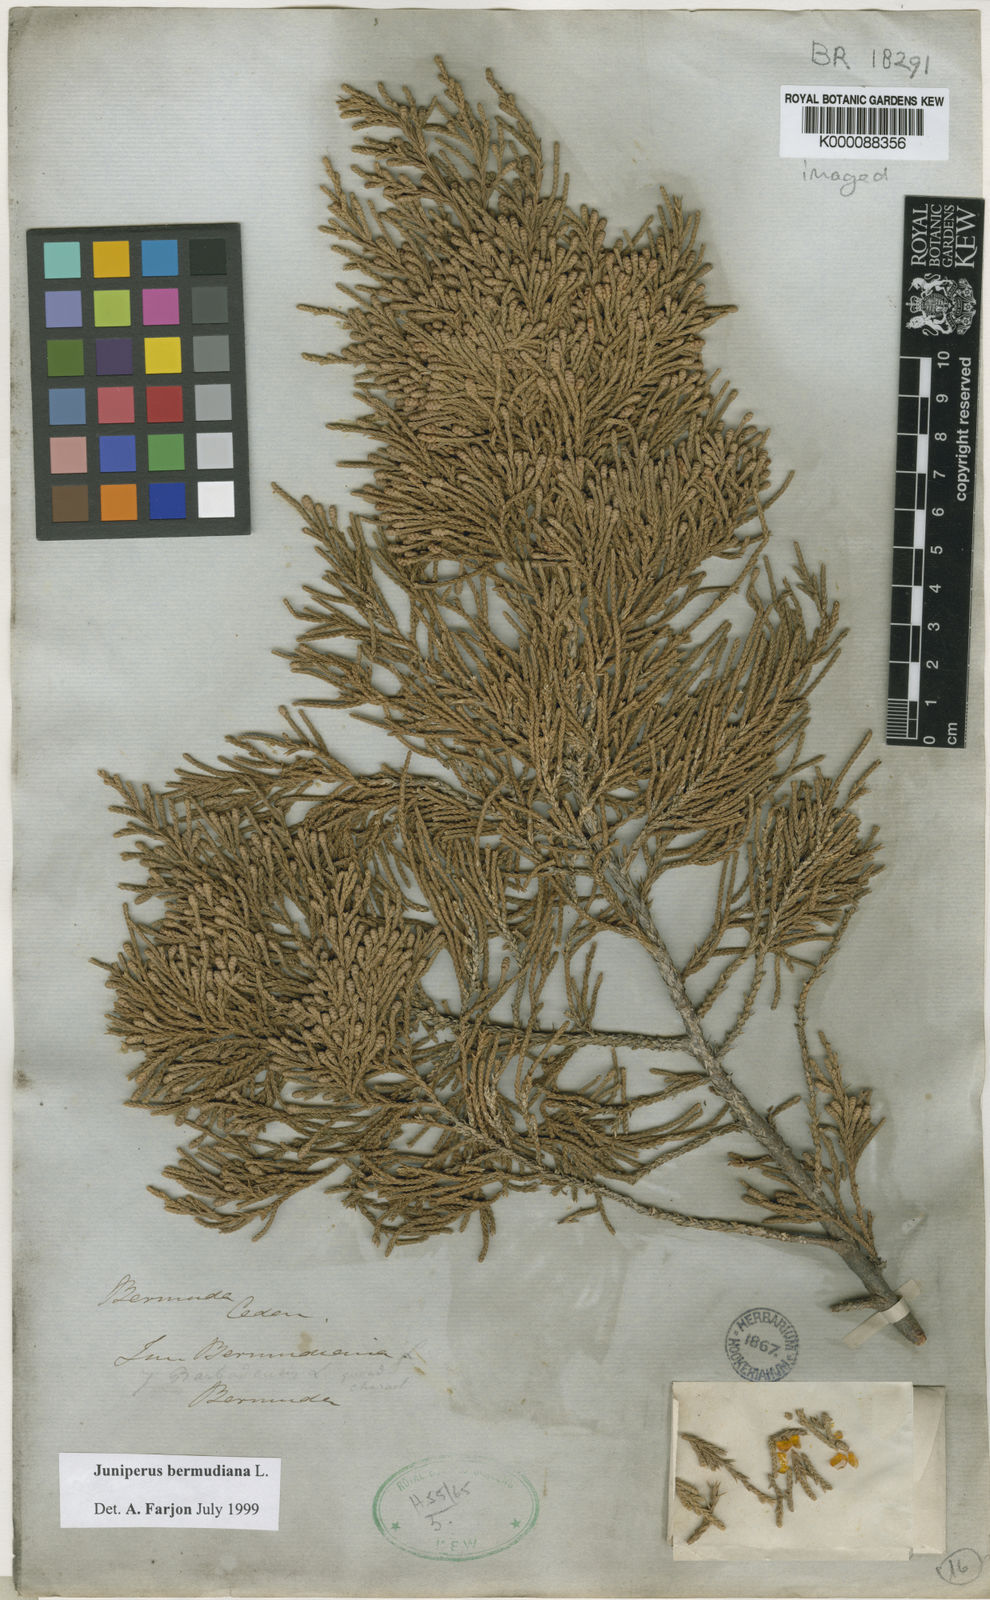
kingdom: Plantae
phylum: Tracheophyta
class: Pinopsida
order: Pinales
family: Cupressaceae
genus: Juniperus
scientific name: Juniperus bermudiana
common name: Bermuda juniper
